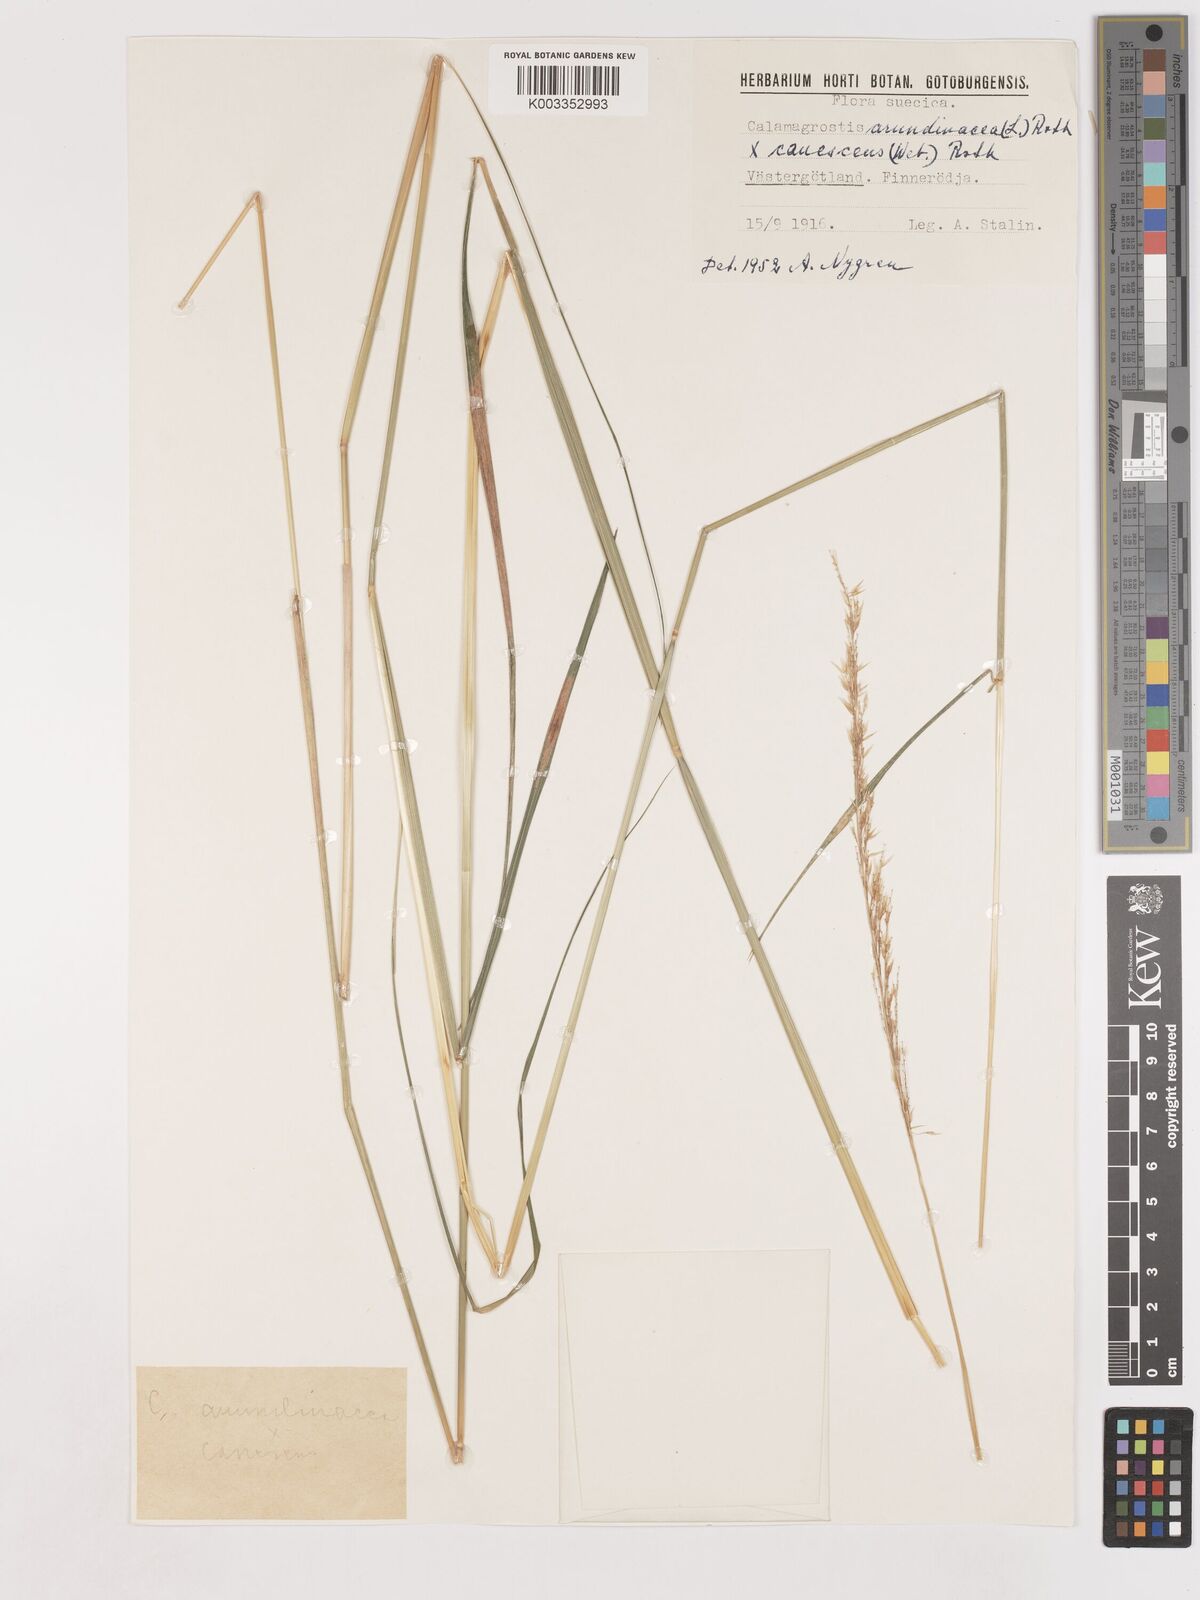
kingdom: Plantae
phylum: Tracheophyta
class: Liliopsida
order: Poales
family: Poaceae
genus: Calamagrostis
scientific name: Calamagrostis canescens
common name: Purple small-reed
